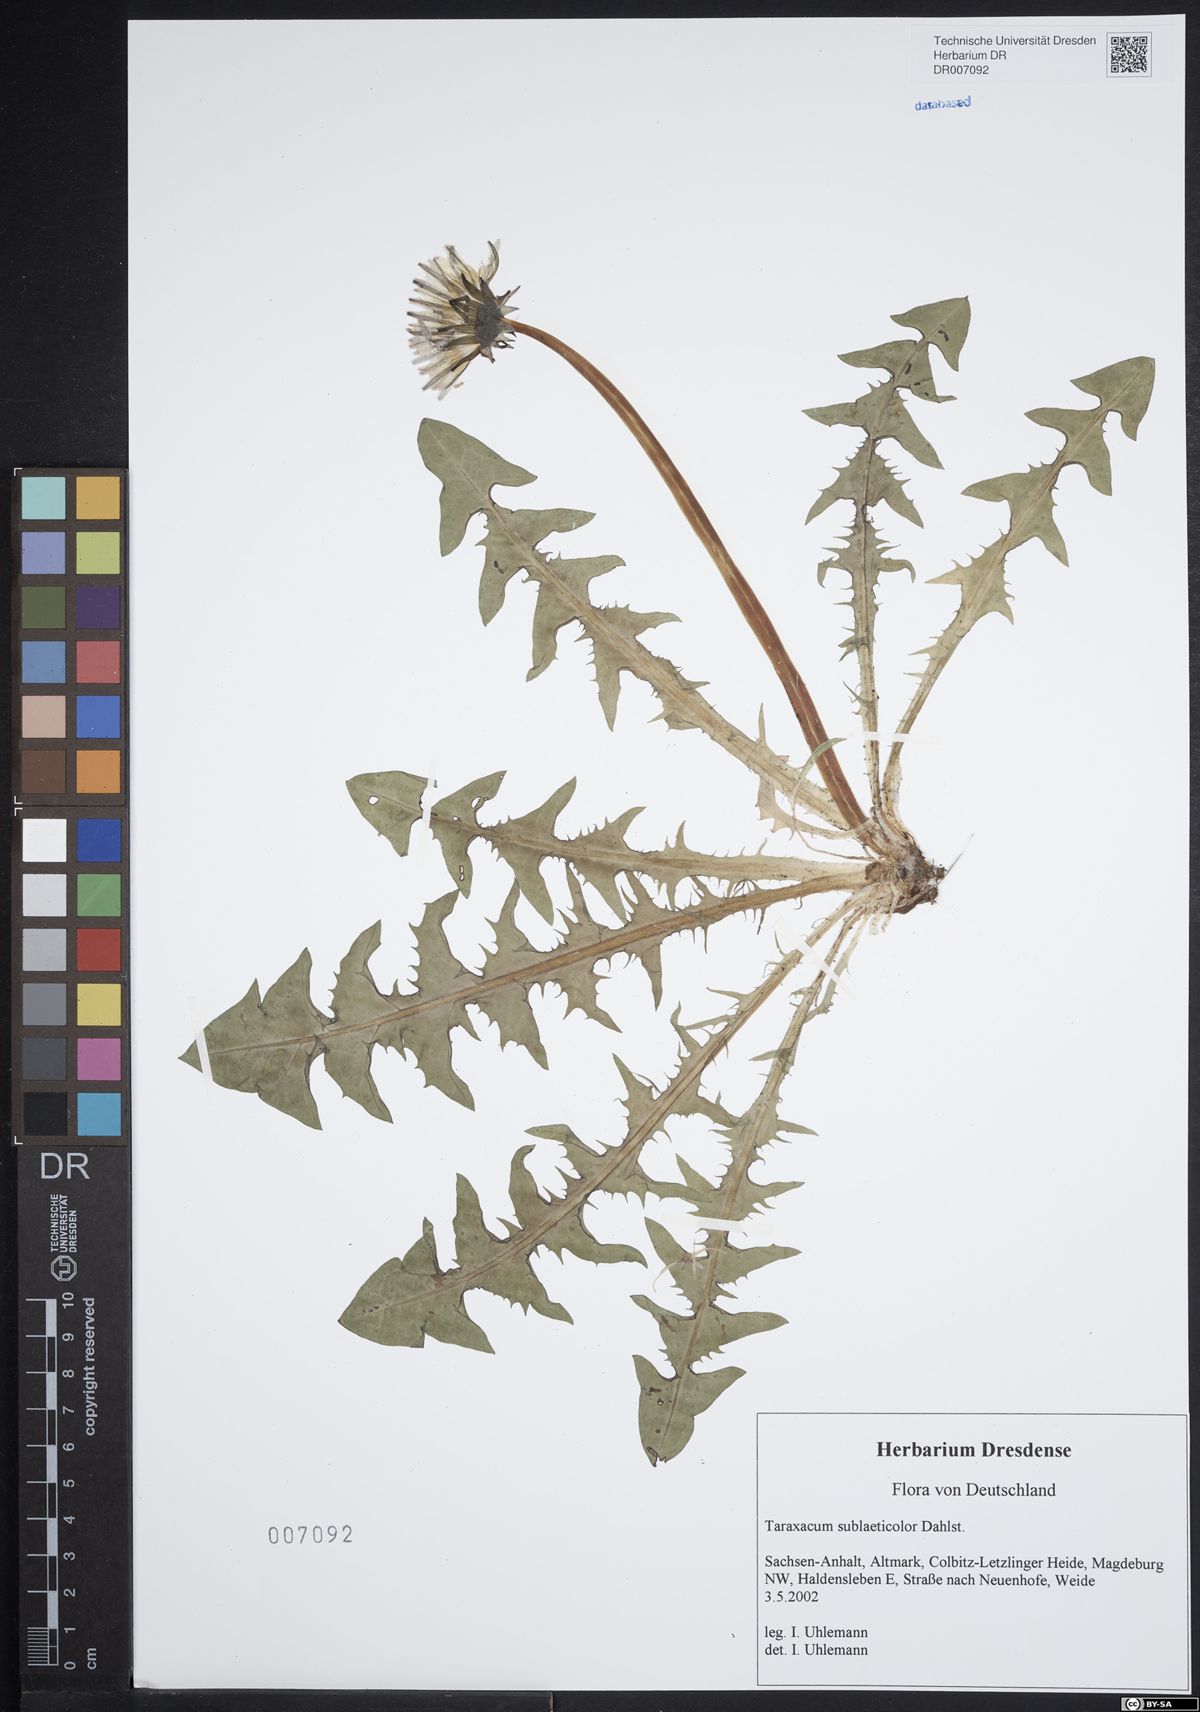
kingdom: Plantae
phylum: Tracheophyta
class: Magnoliopsida
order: Asterales
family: Asteraceae
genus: Taraxacum
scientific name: Taraxacum sublaeticolor
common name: Small-headed dandelion
